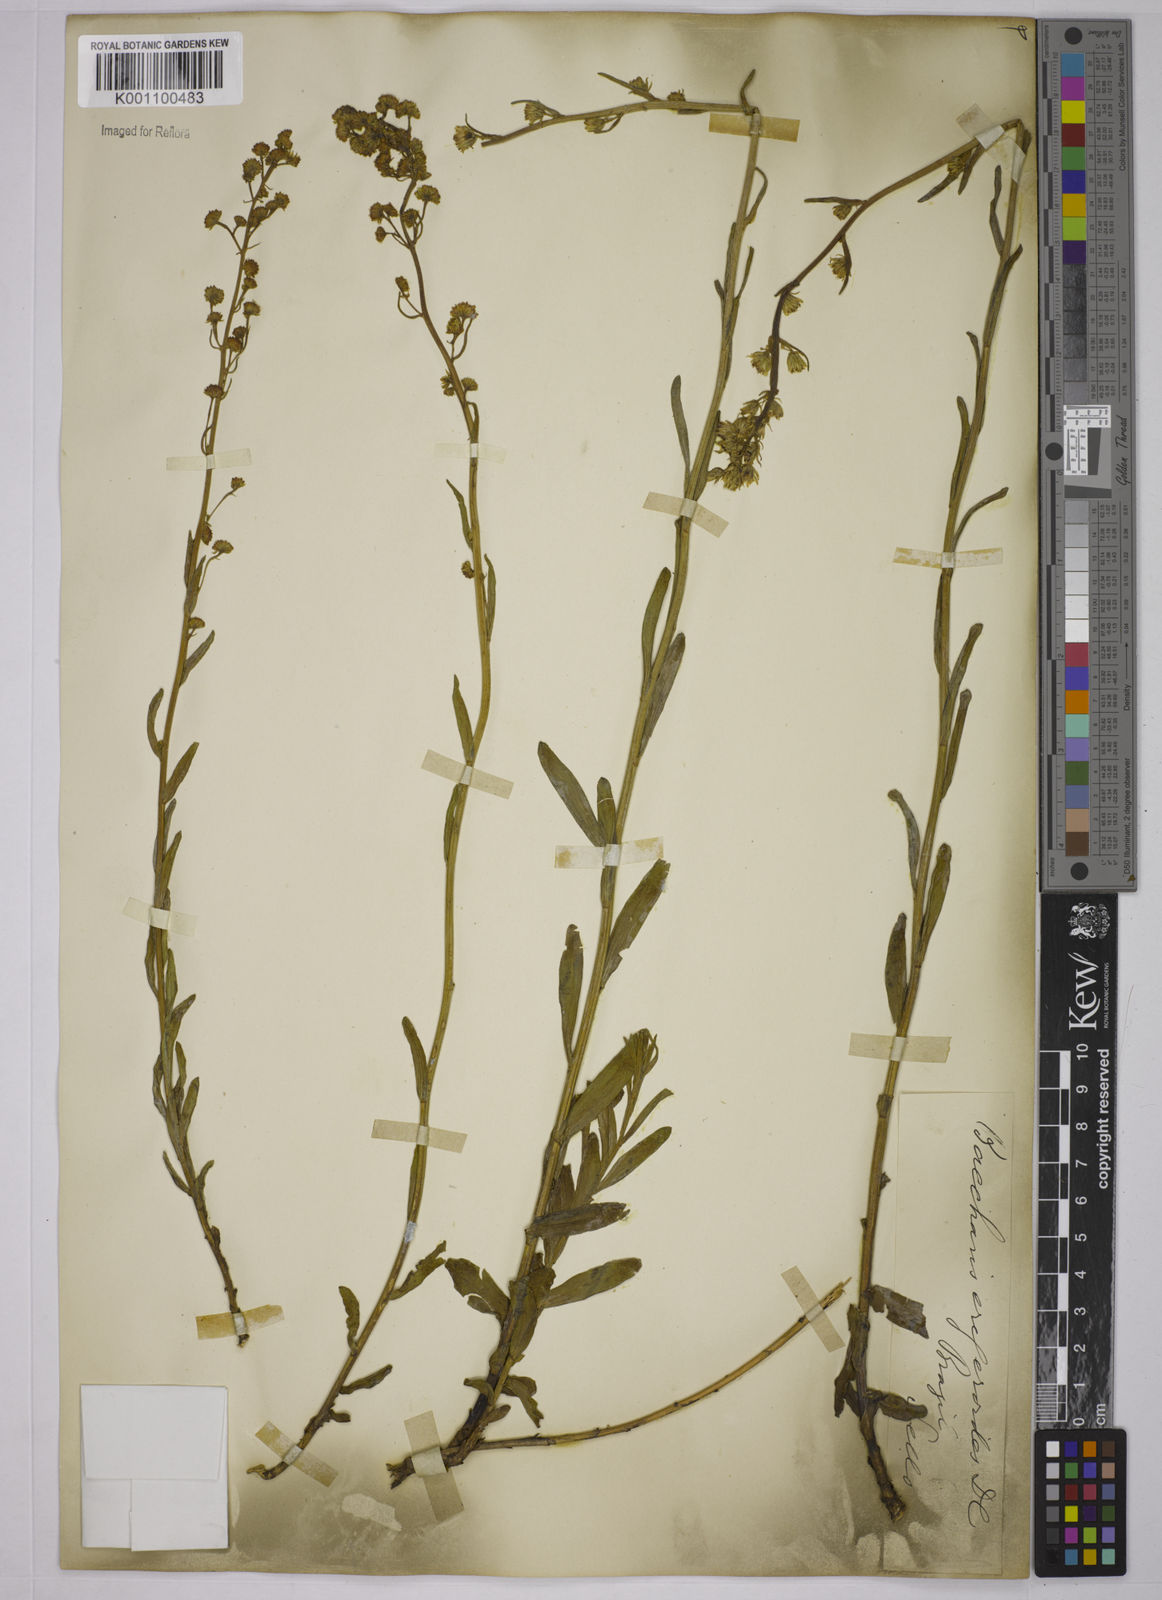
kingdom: Plantae
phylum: Tracheophyta
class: Magnoliopsida
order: Asterales
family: Asteraceae
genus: Baccharis
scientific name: Baccharis erigeroides
